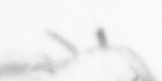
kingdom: Chromista
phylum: Ochrophyta
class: Bacillariophyceae
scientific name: Bacillariophyceae
